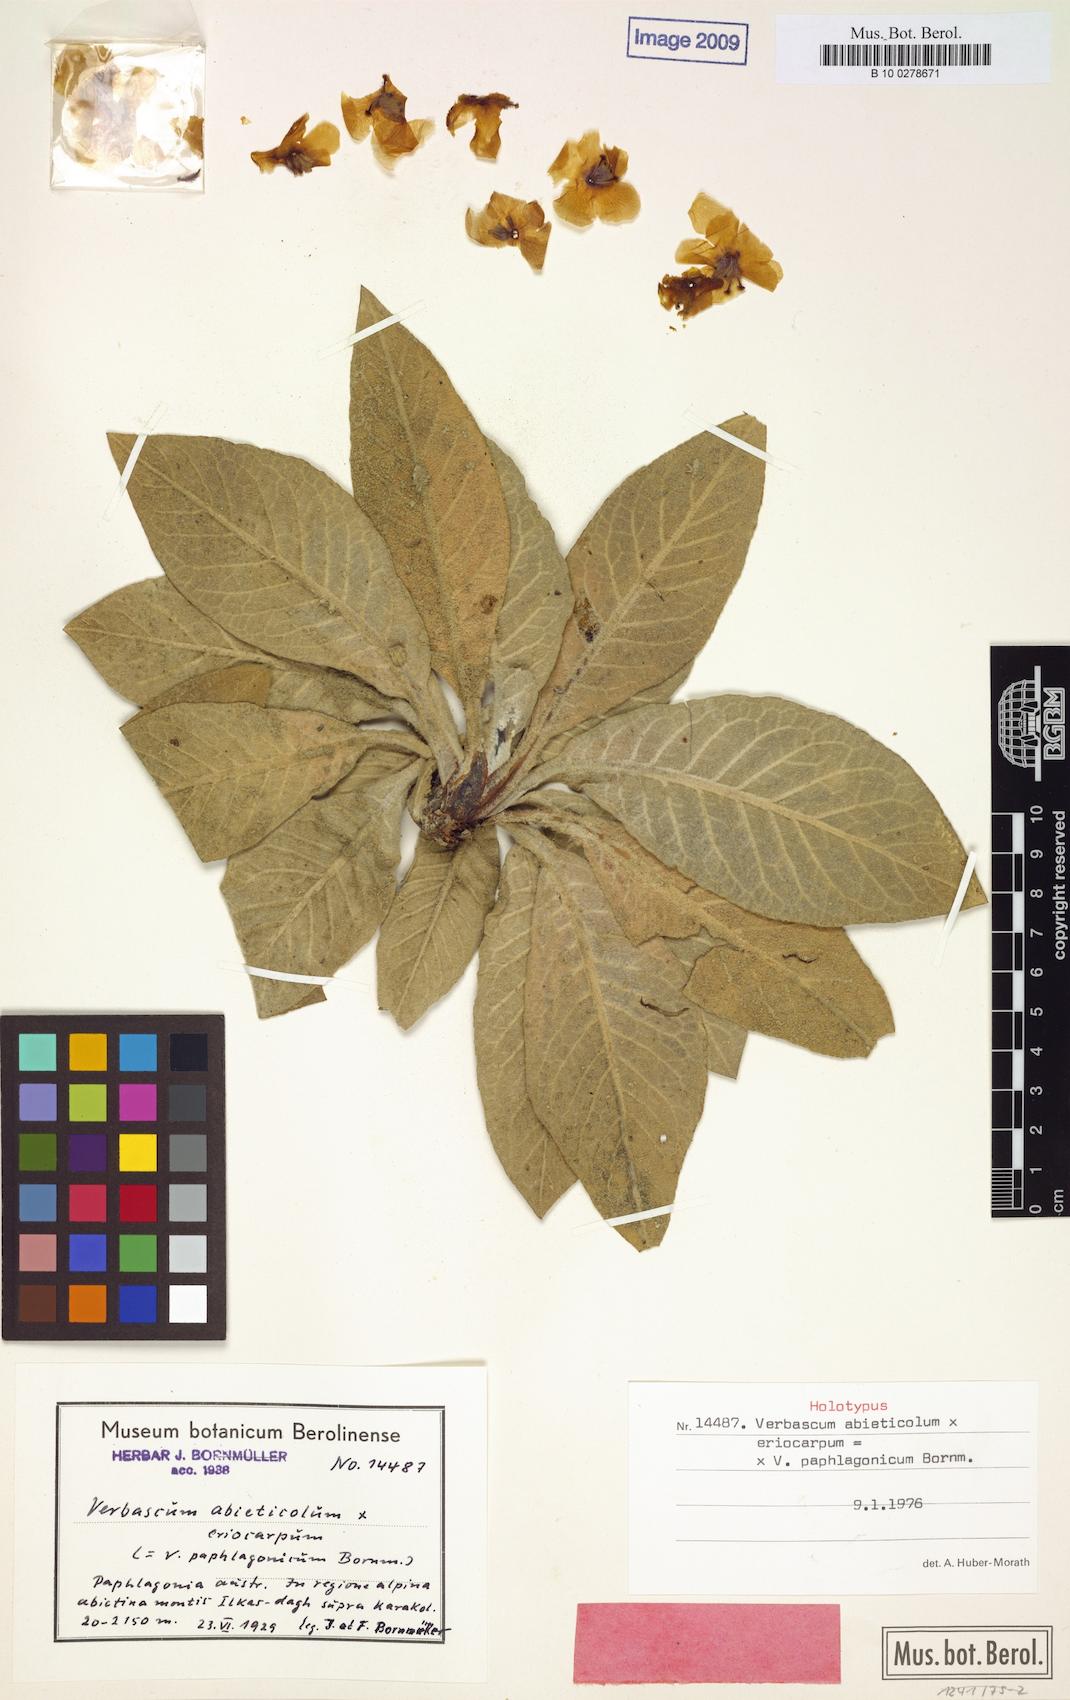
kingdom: Plantae
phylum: Tracheophyta
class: Magnoliopsida
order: Lamiales
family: Scrophulariaceae
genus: Verbascum
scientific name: Verbascum paphlagonicum
